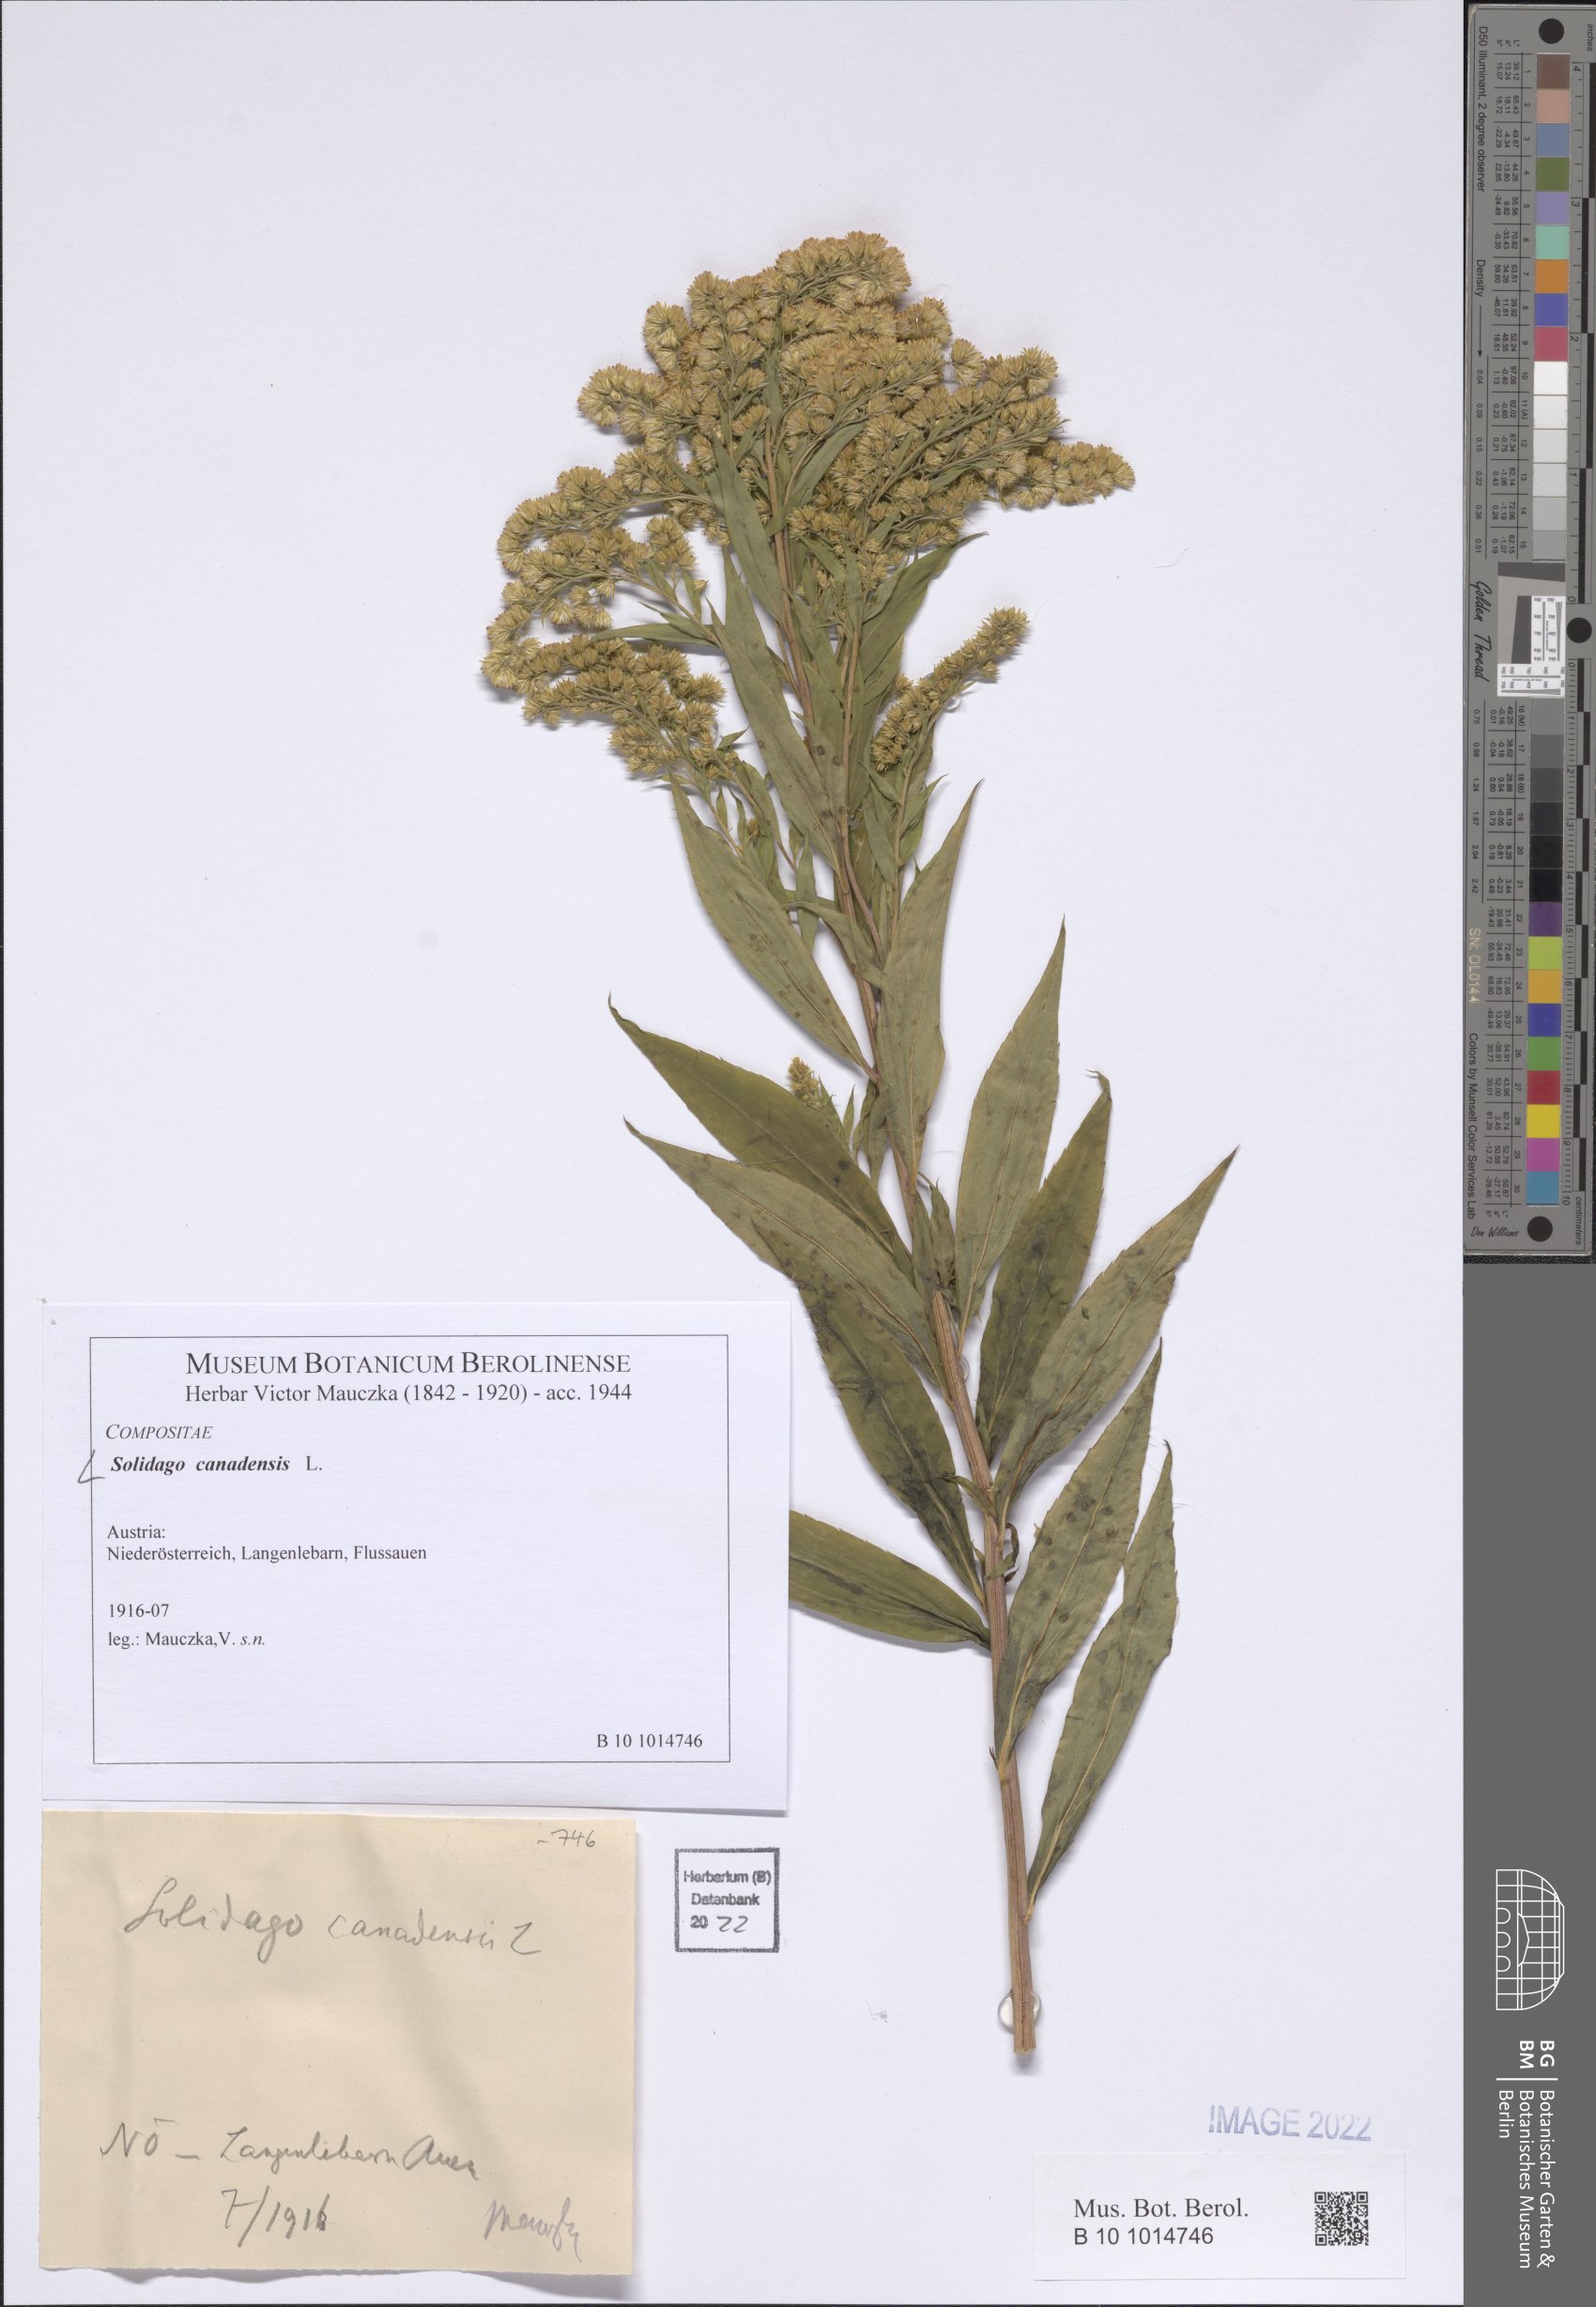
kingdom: Plantae
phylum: Tracheophyta
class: Magnoliopsida
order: Asterales
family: Asteraceae
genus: Solidago
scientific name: Solidago canadensis
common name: Canada goldenrod
